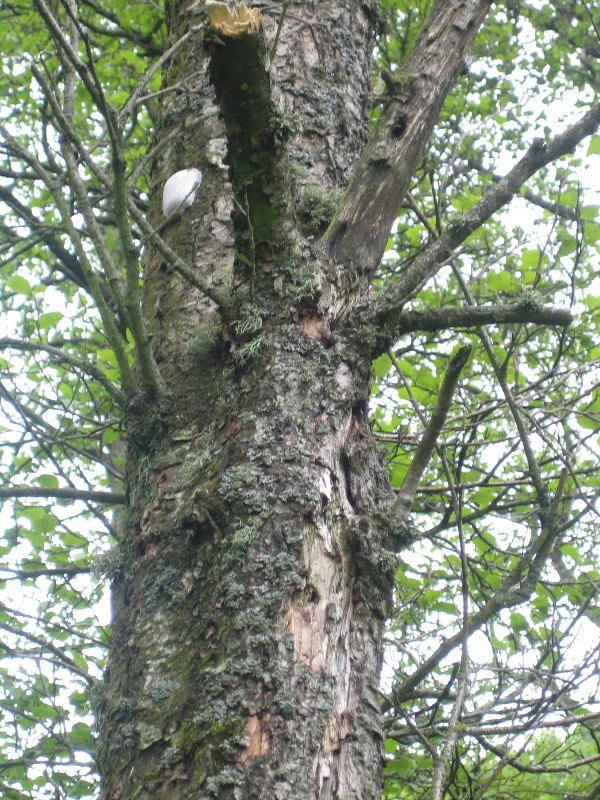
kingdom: Protozoa
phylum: Mycetozoa
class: Myxomycetes
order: Cribrariales
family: Tubiferaceae
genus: Reticularia
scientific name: Reticularia lycoperdon
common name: skinnende støvpude
